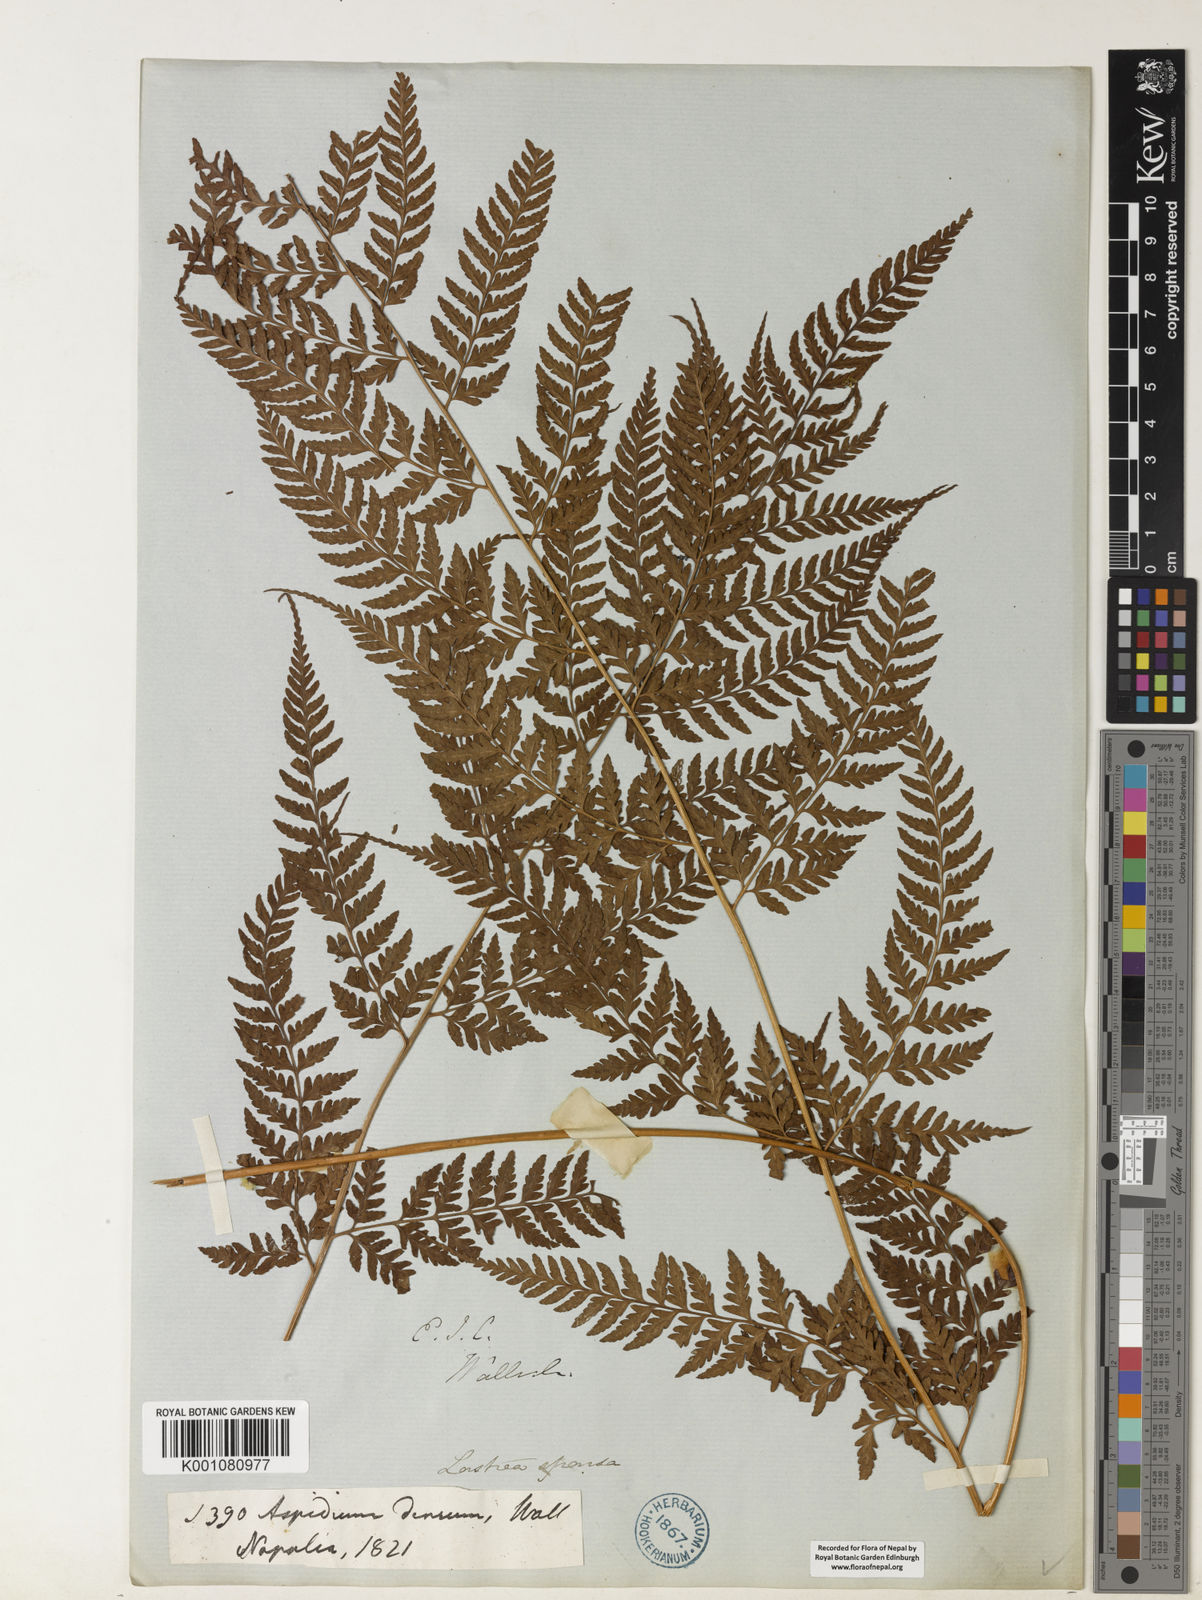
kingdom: Plantae
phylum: Tracheophyta
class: Polypodiopsida
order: Polypodiales
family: Dryopteridaceae
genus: Dryopteris
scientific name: Dryopteris sparsa
